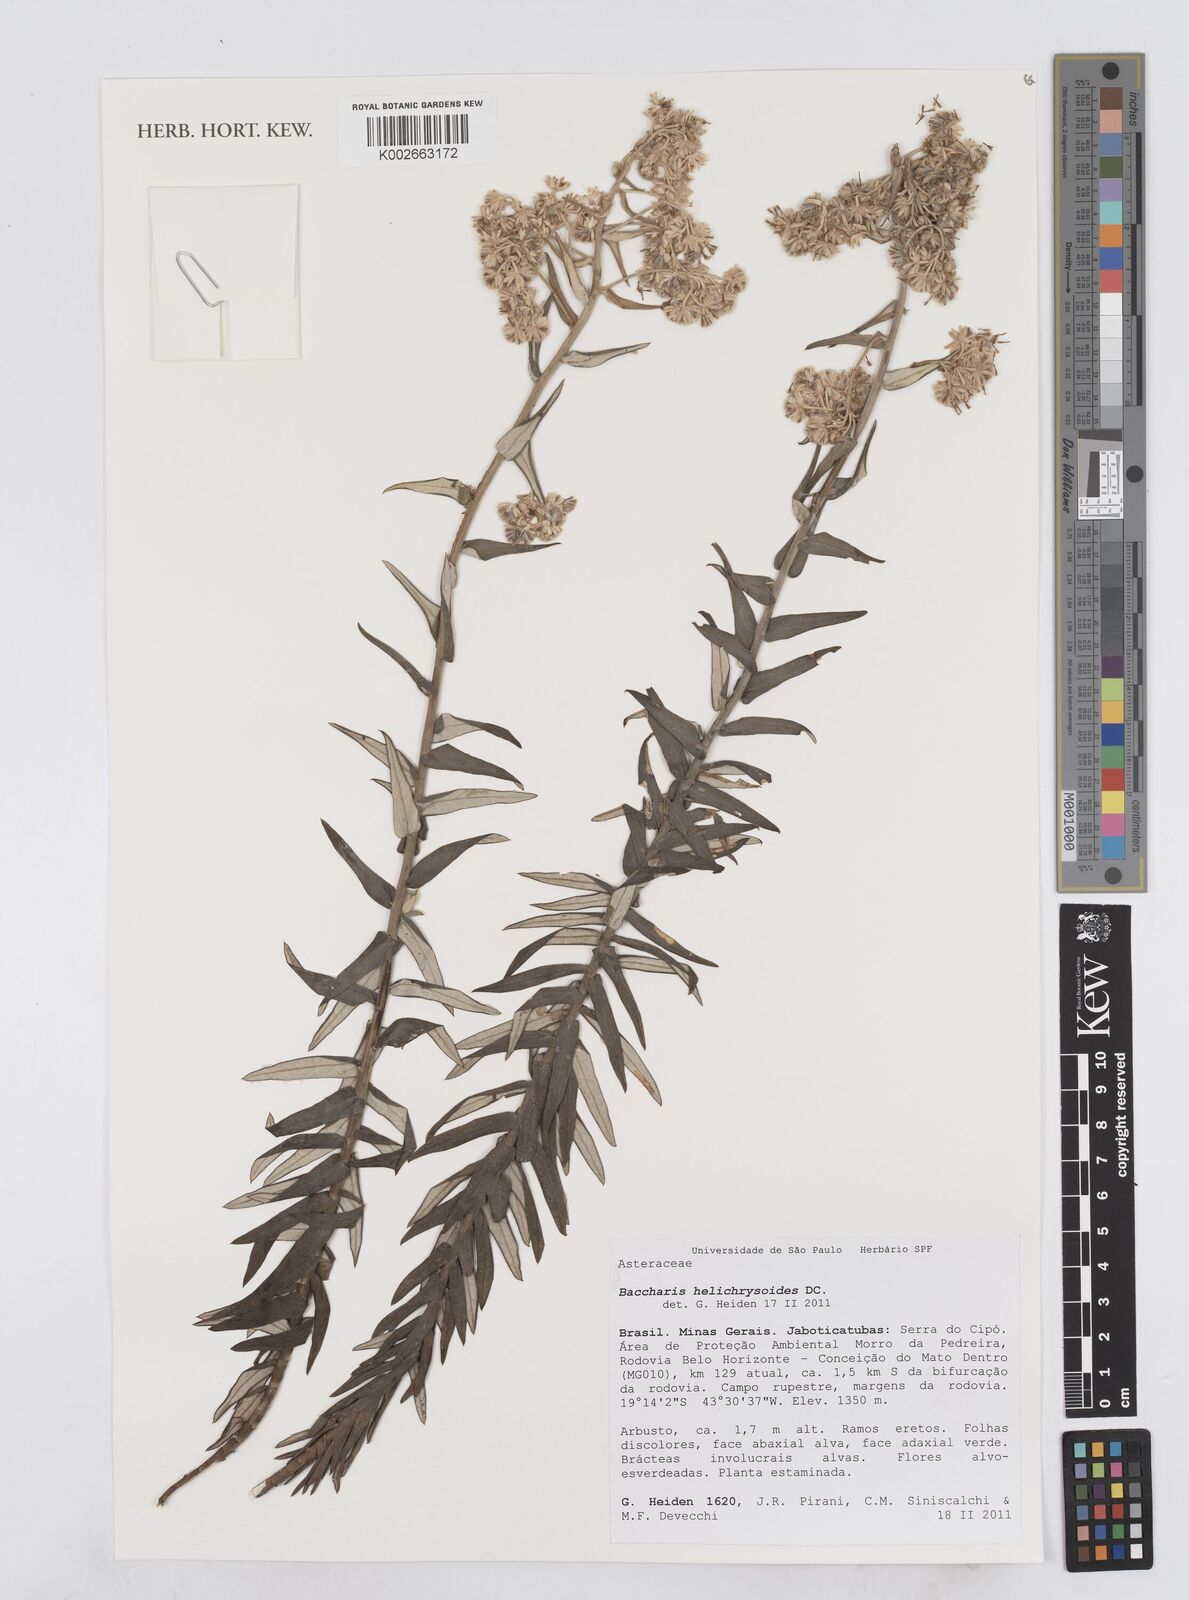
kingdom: Plantae
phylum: Tracheophyta
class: Magnoliopsida
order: Asterales
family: Asteraceae
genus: Baccharis
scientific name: Baccharis helichrysoides
